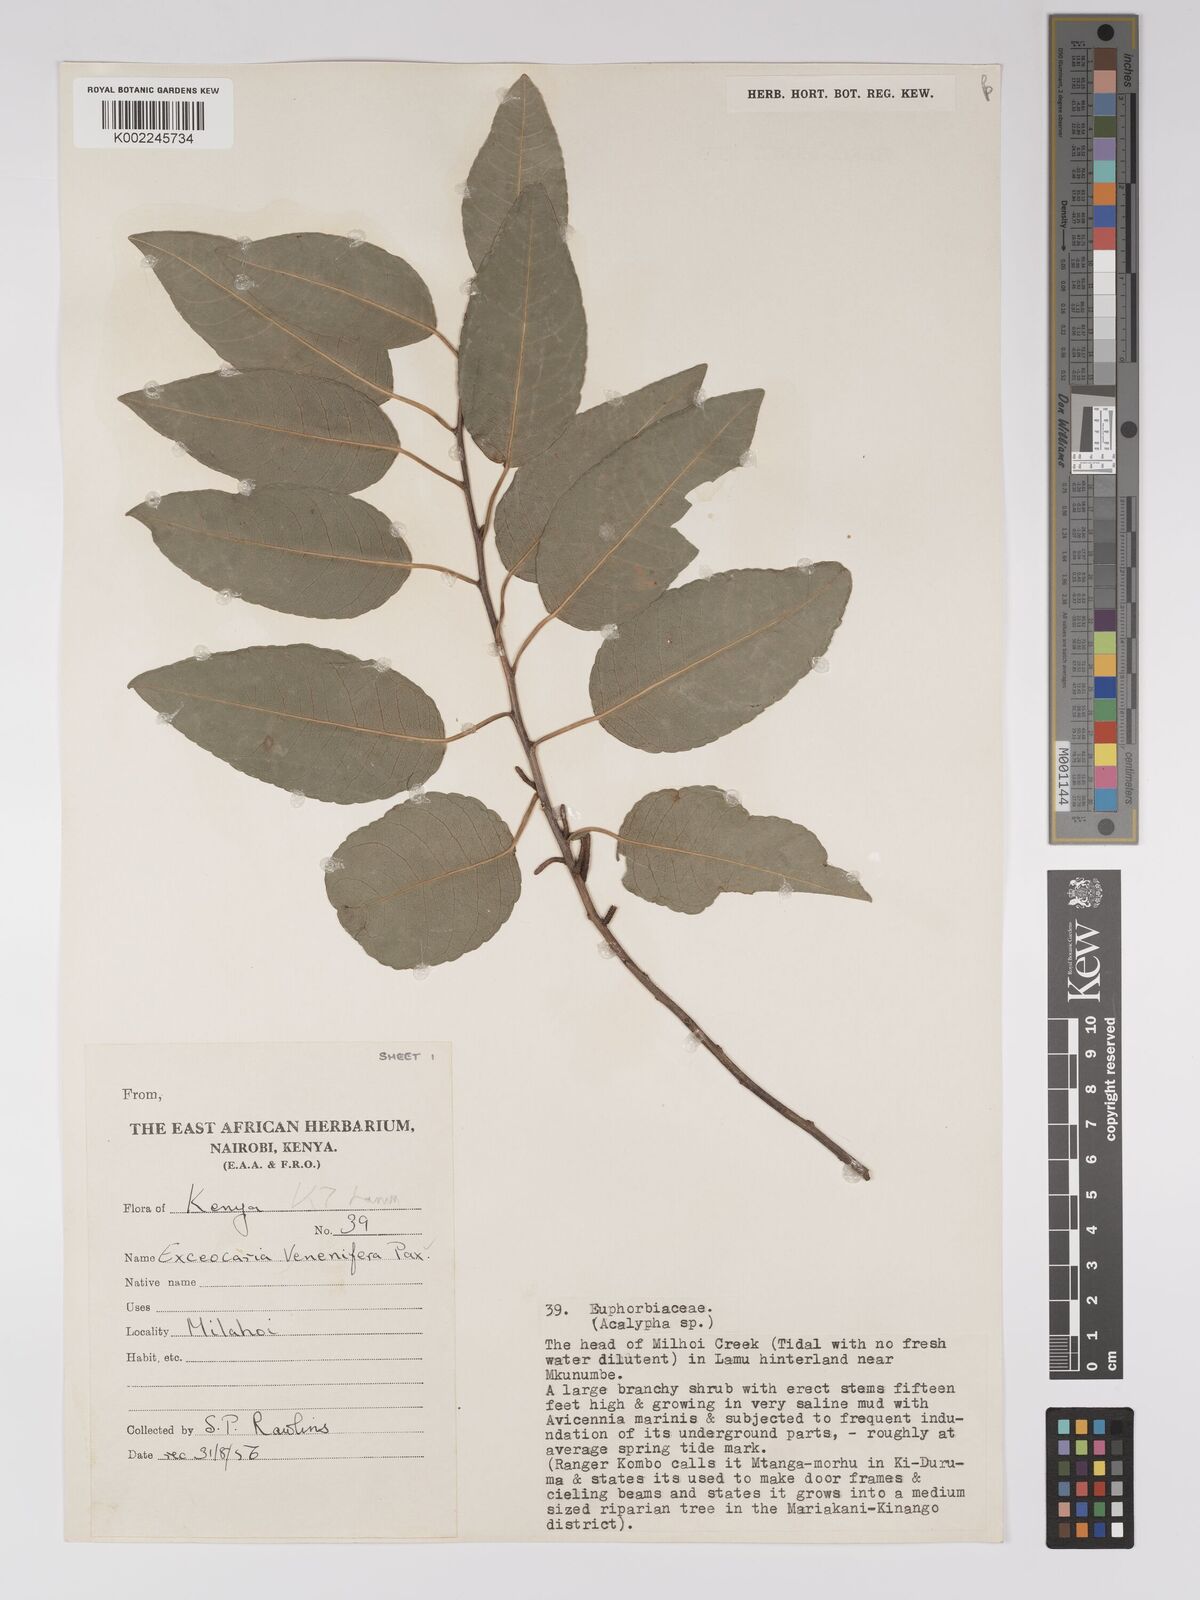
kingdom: Plantae
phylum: Tracheophyta
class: Magnoliopsida
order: Malpighiales
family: Euphorbiaceae
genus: Spirostachys
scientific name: Spirostachys venenifera
